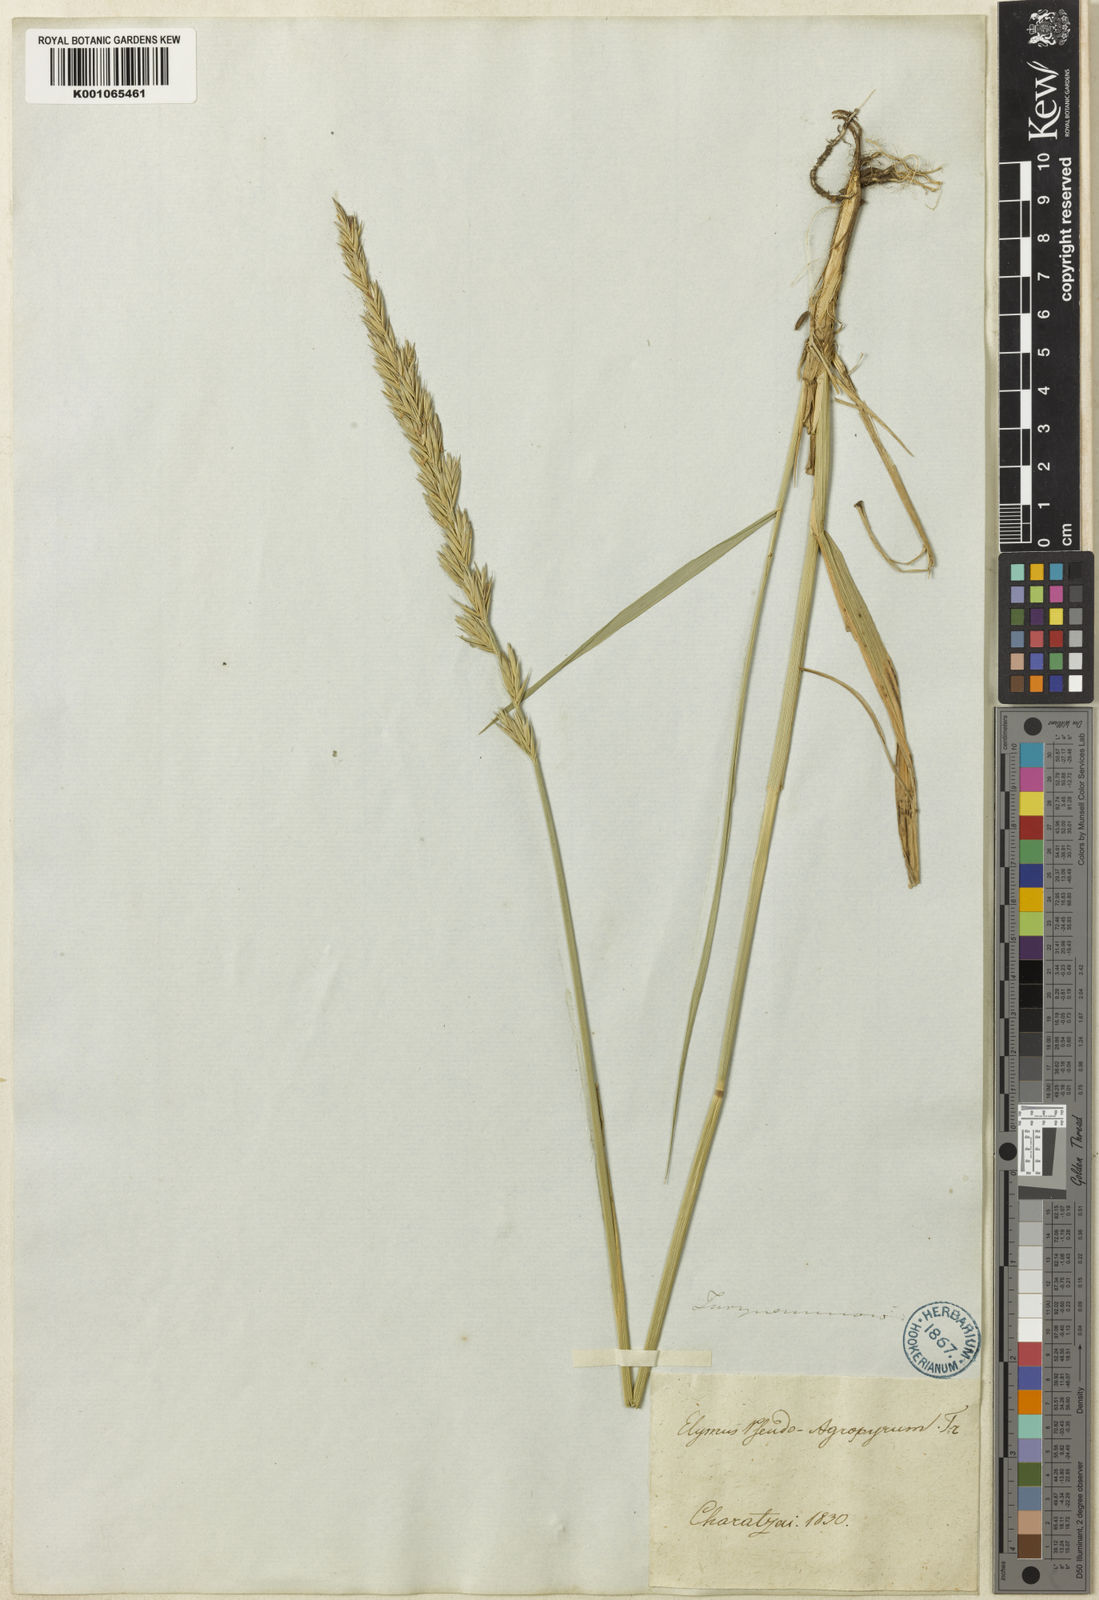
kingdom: Plantae
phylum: Tracheophyta
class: Liliopsida
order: Poales
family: Poaceae
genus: Leymus
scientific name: Leymus chinensis
